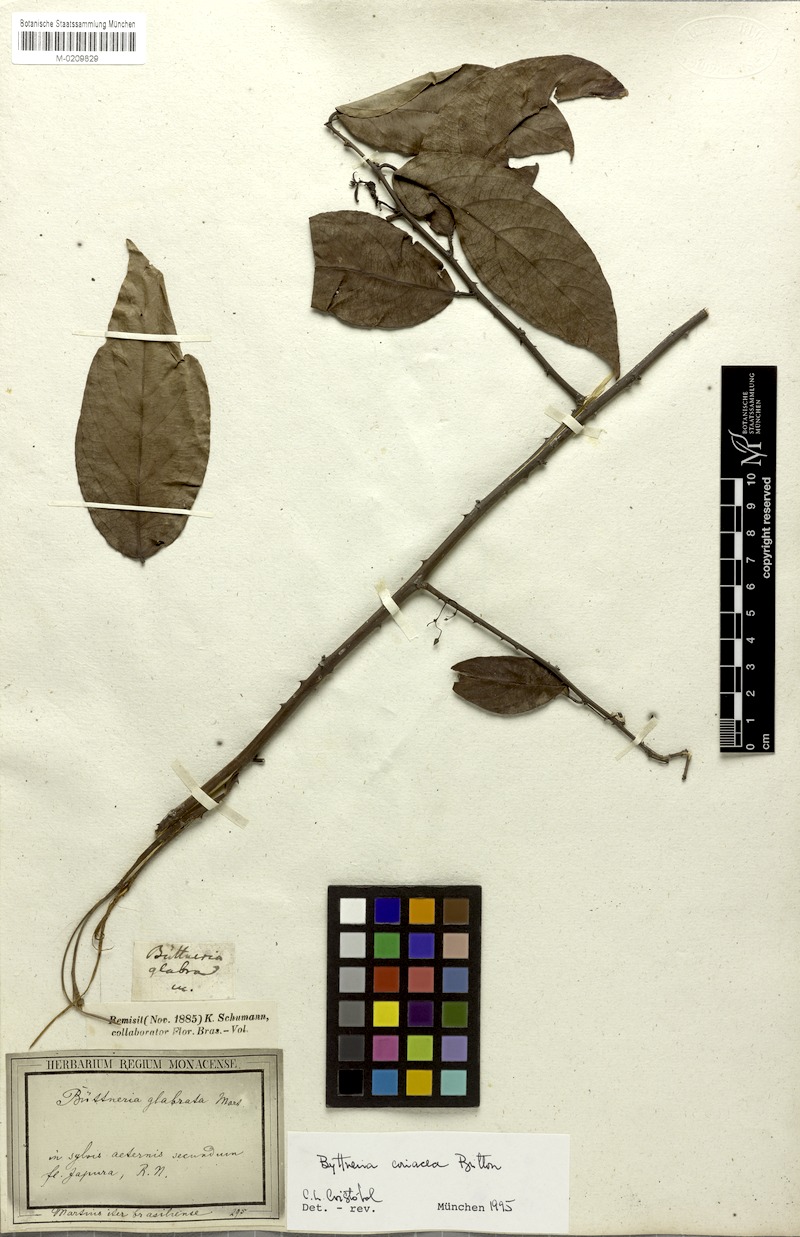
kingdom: Plantae
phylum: Tracheophyta
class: Magnoliopsida
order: Malvales
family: Malvaceae
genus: Byttneria
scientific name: Byttneria coriacea
